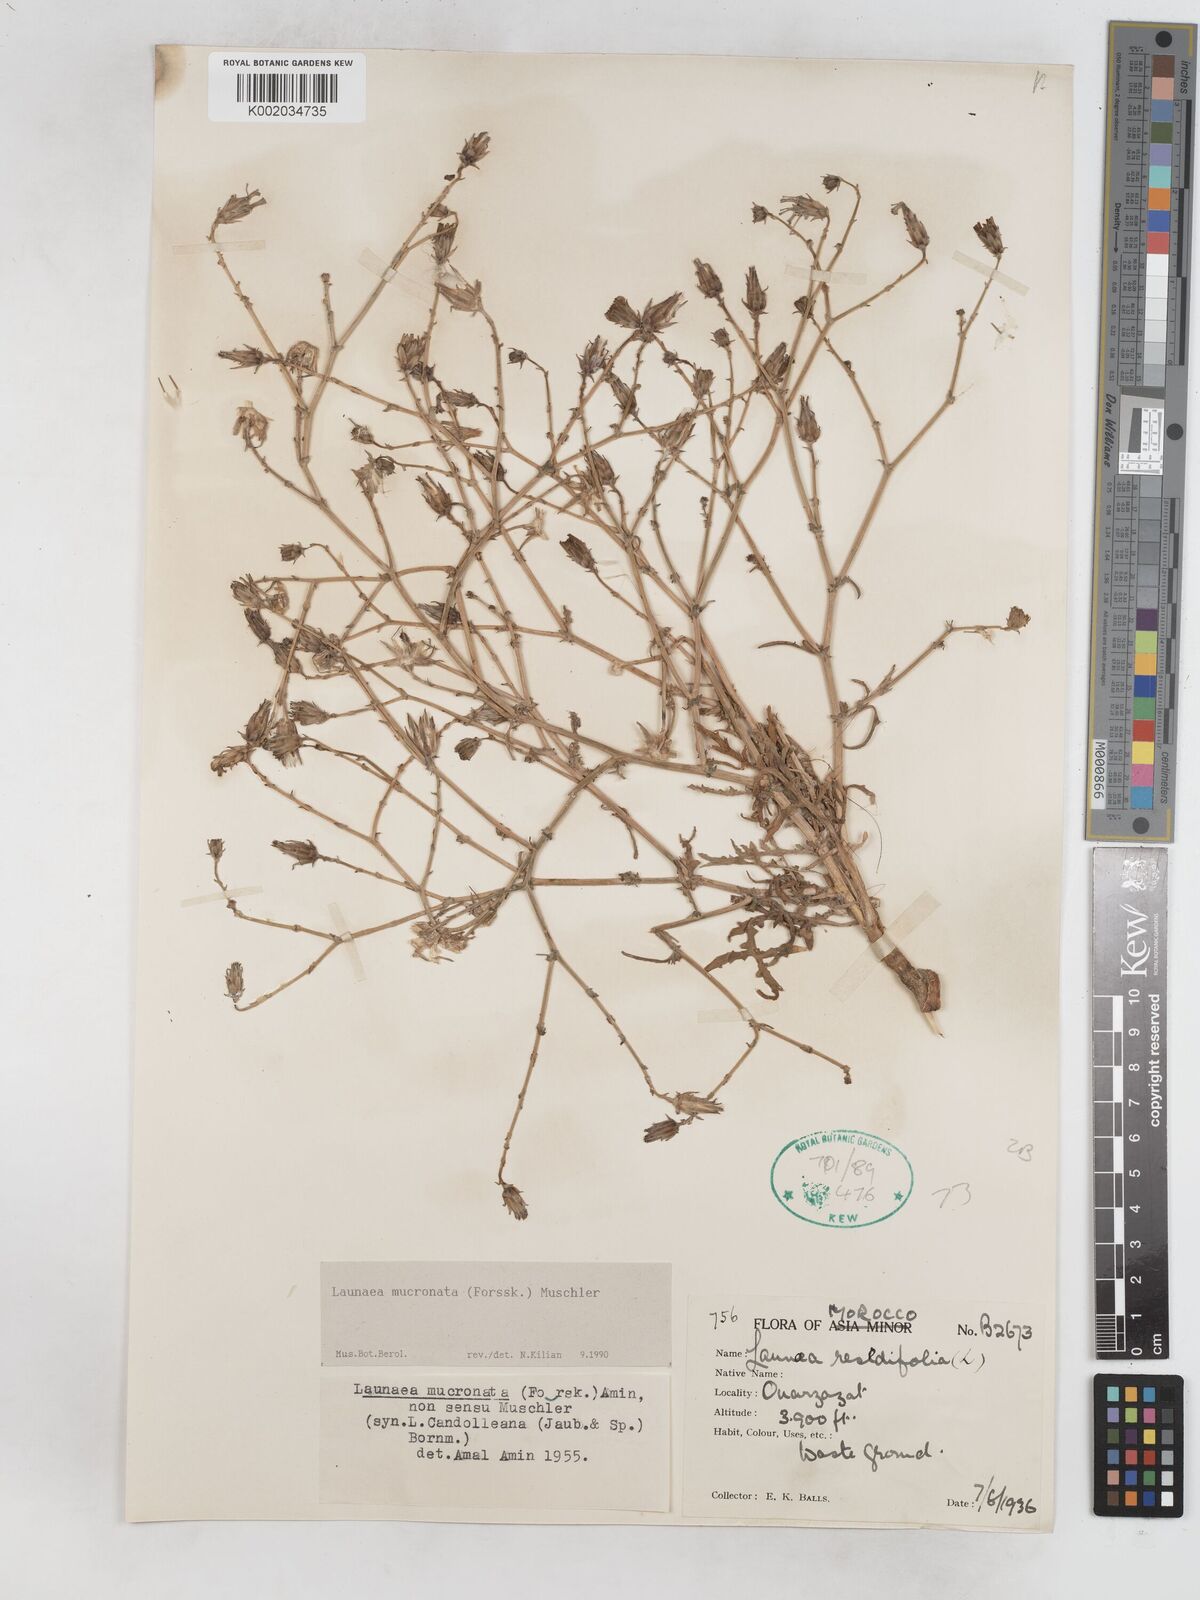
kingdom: Plantae
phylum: Tracheophyta
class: Magnoliopsida
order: Asterales
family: Asteraceae
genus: Launaea
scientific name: Launaea mucronata
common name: Mucronate launea
